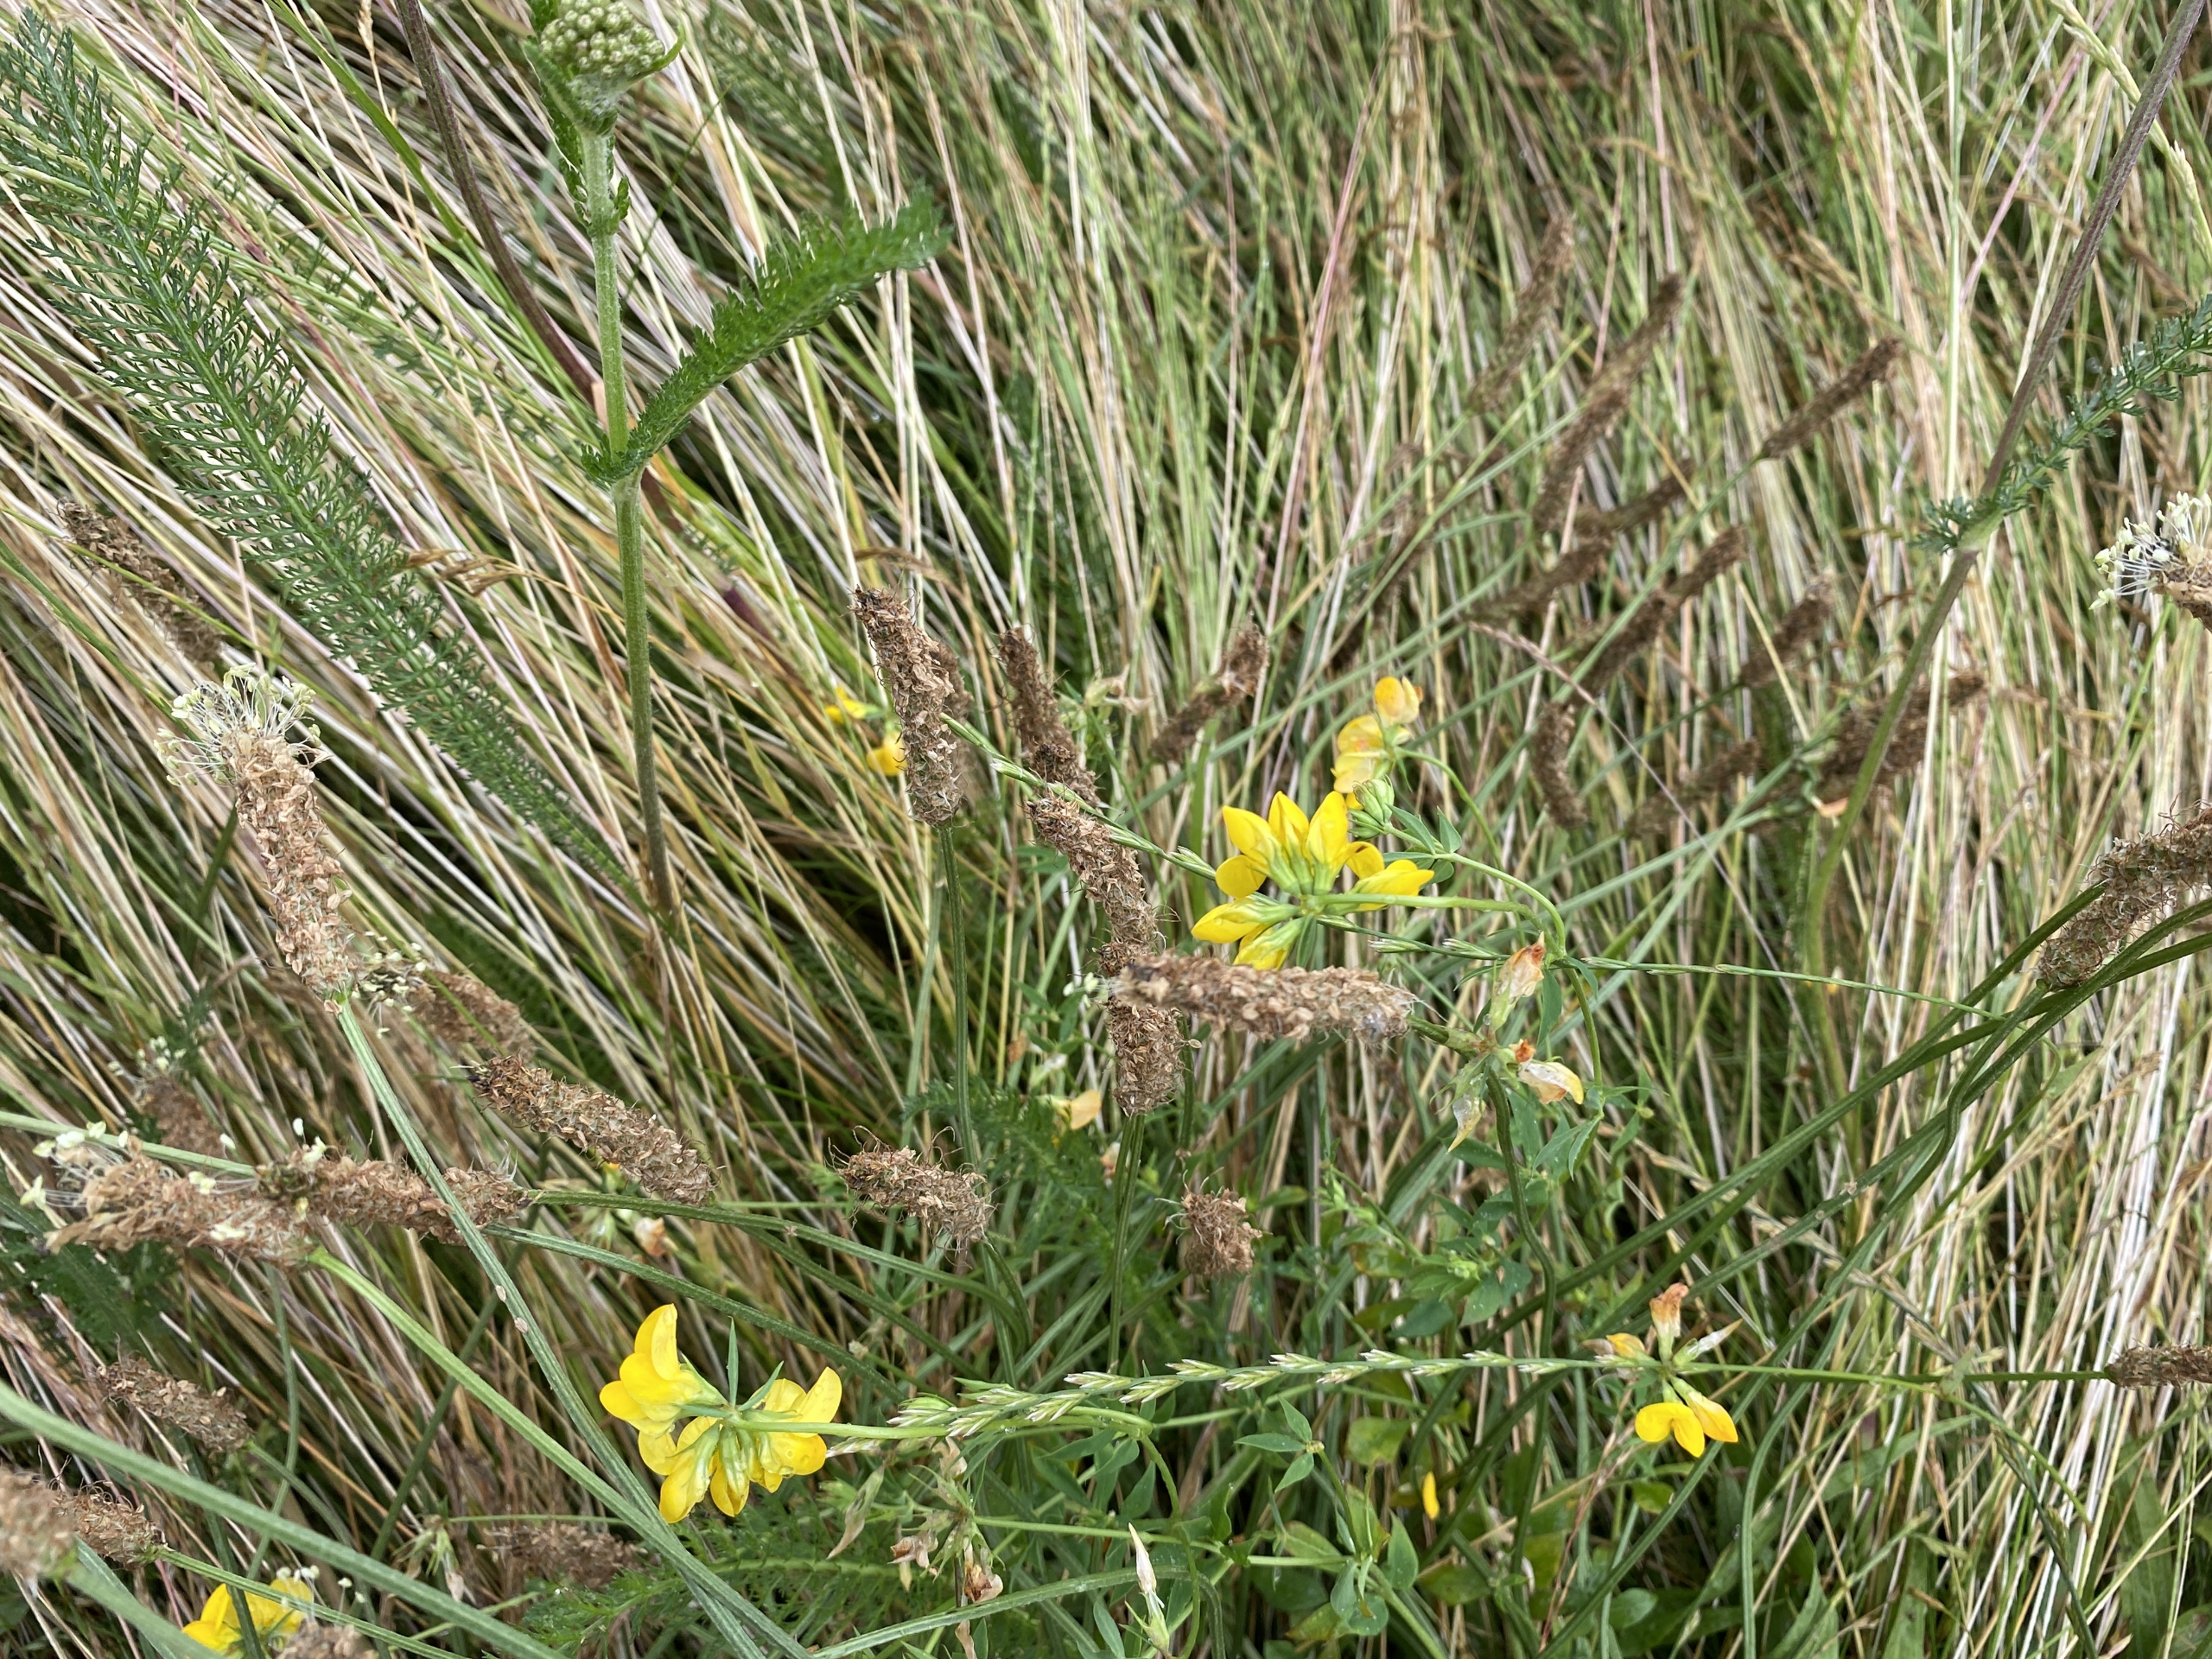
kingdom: Plantae
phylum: Tracheophyta
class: Magnoliopsida
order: Fabales
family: Fabaceae
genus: Lotus
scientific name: Lotus corniculatus
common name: Almindelig kællingetand
